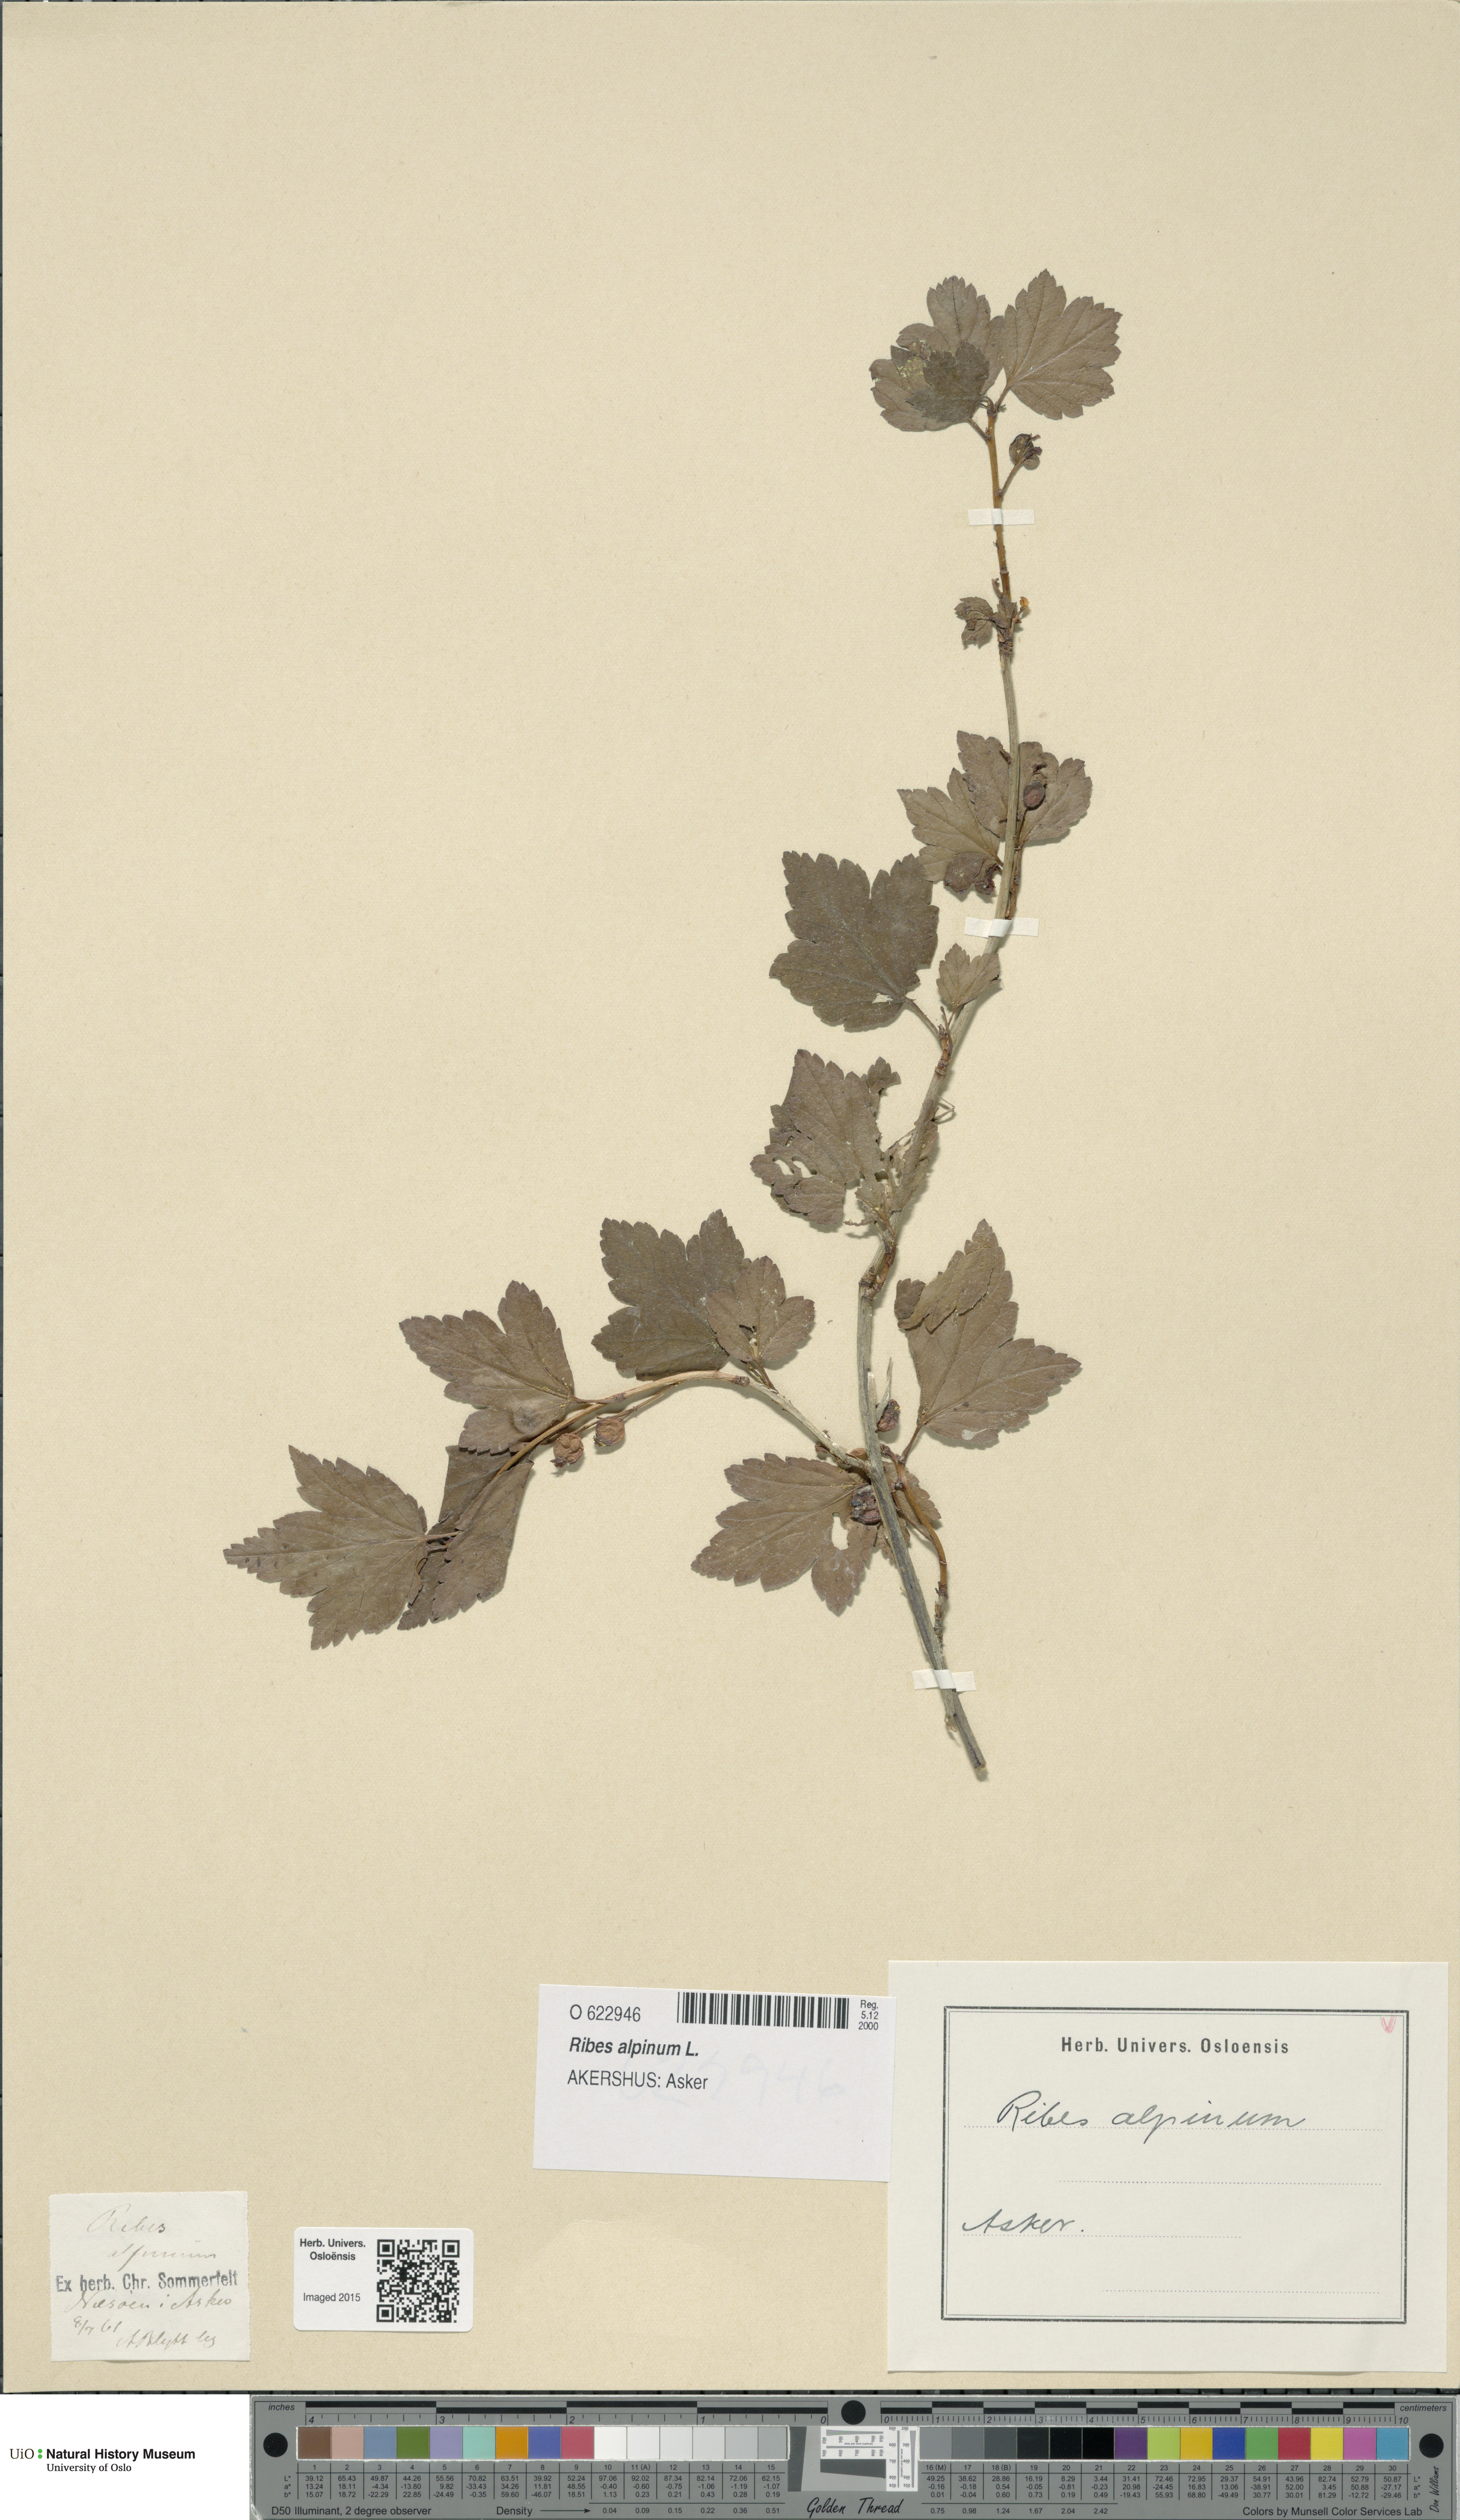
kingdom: Plantae
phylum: Tracheophyta
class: Magnoliopsida
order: Saxifragales
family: Grossulariaceae
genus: Ribes
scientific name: Ribes alpinum
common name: Alpine currant
